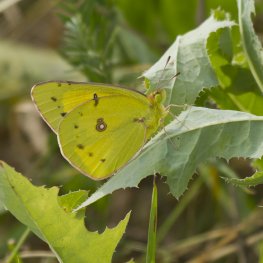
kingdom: Animalia
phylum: Arthropoda
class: Insecta
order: Lepidoptera
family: Pieridae
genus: Colias
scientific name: Colias philodice
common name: Clouded Sulphur
